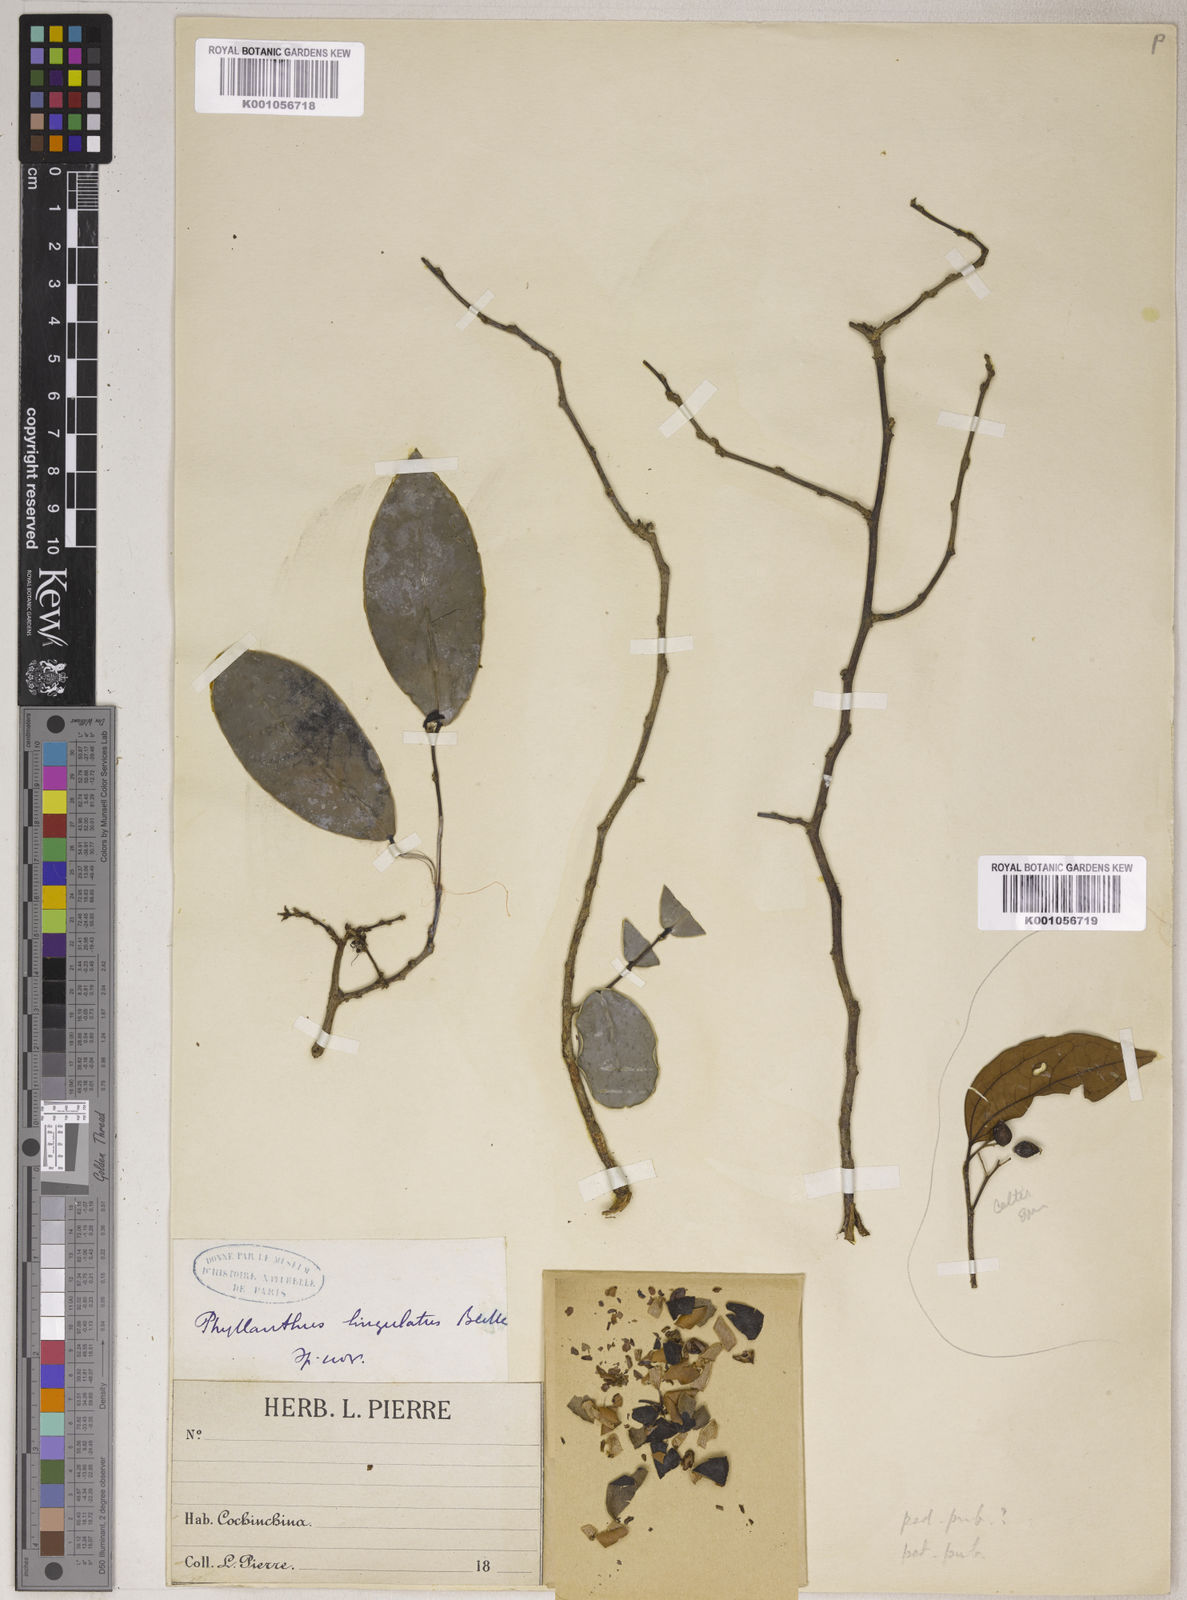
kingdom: Plantae
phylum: Tracheophyta
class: Magnoliopsida
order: Malpighiales
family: Phyllanthaceae
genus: Phyllanthus
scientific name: Phyllanthus lingulatus
